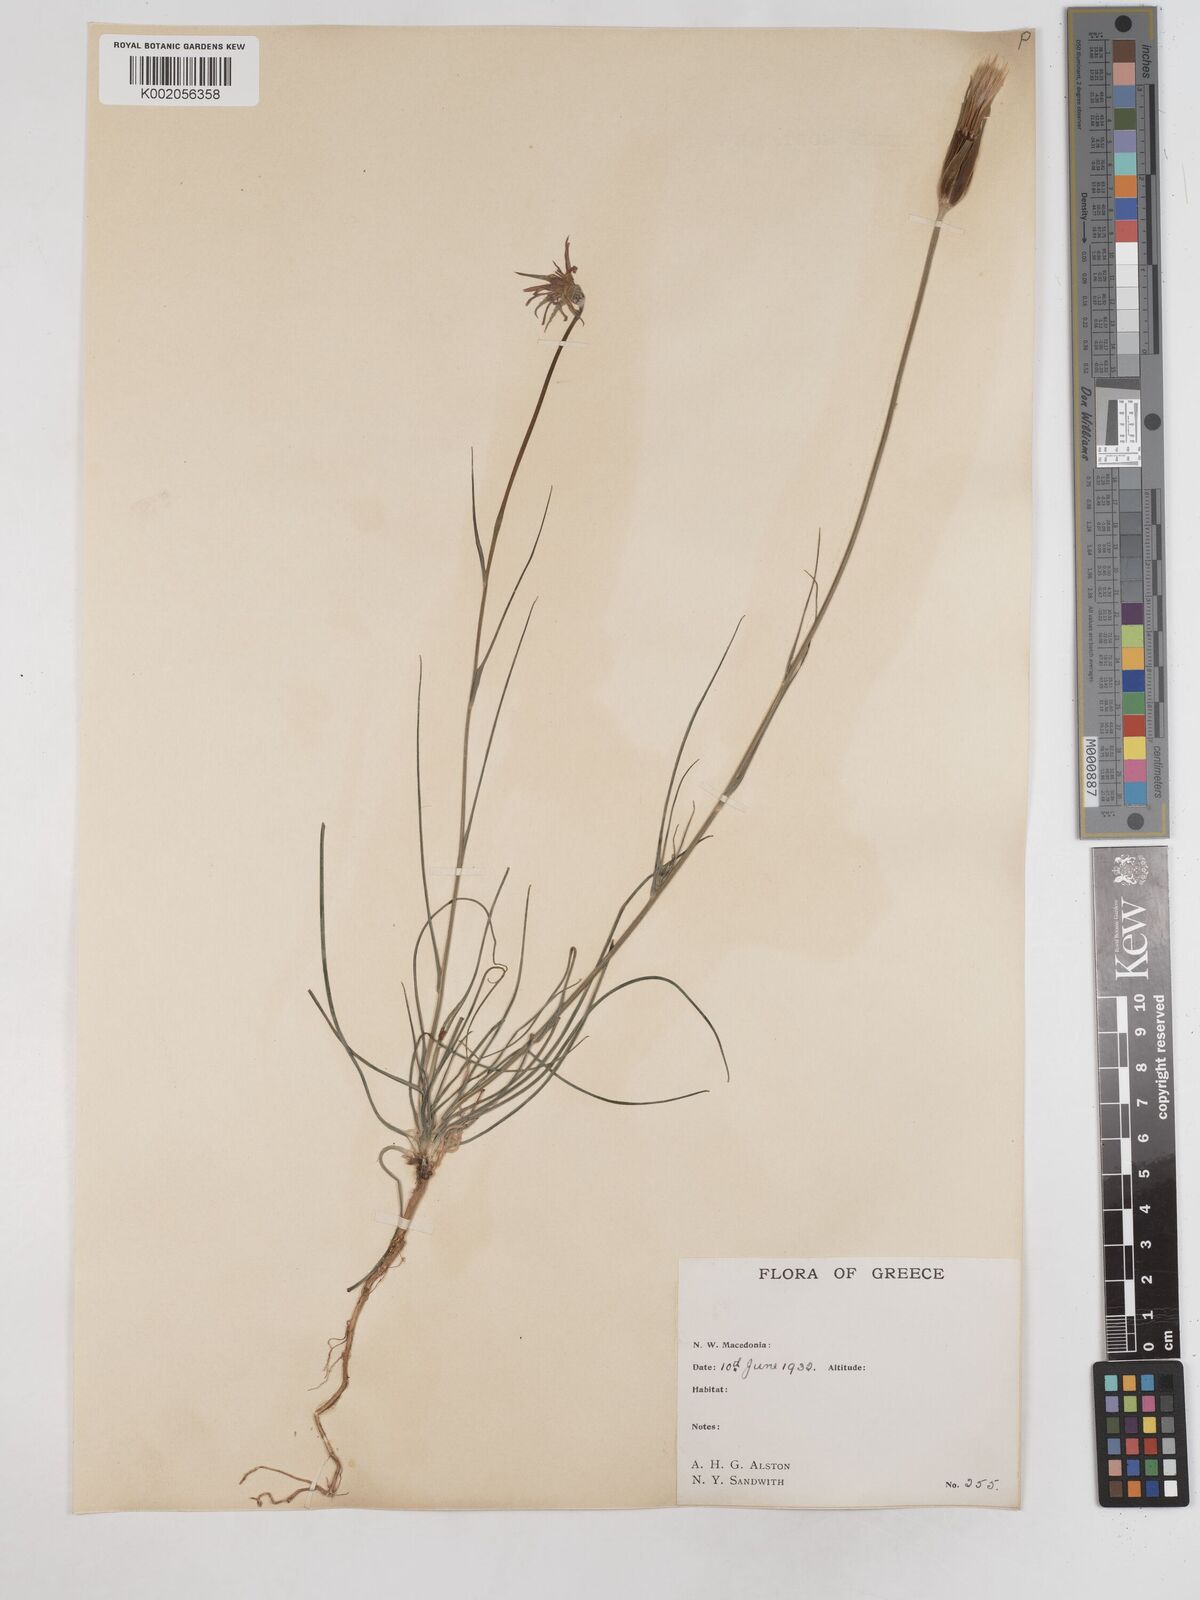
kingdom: Plantae
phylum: Tracheophyta
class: Magnoliopsida
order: Asterales
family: Asteraceae
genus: Tragopogon
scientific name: Tragopogon balcanicus
